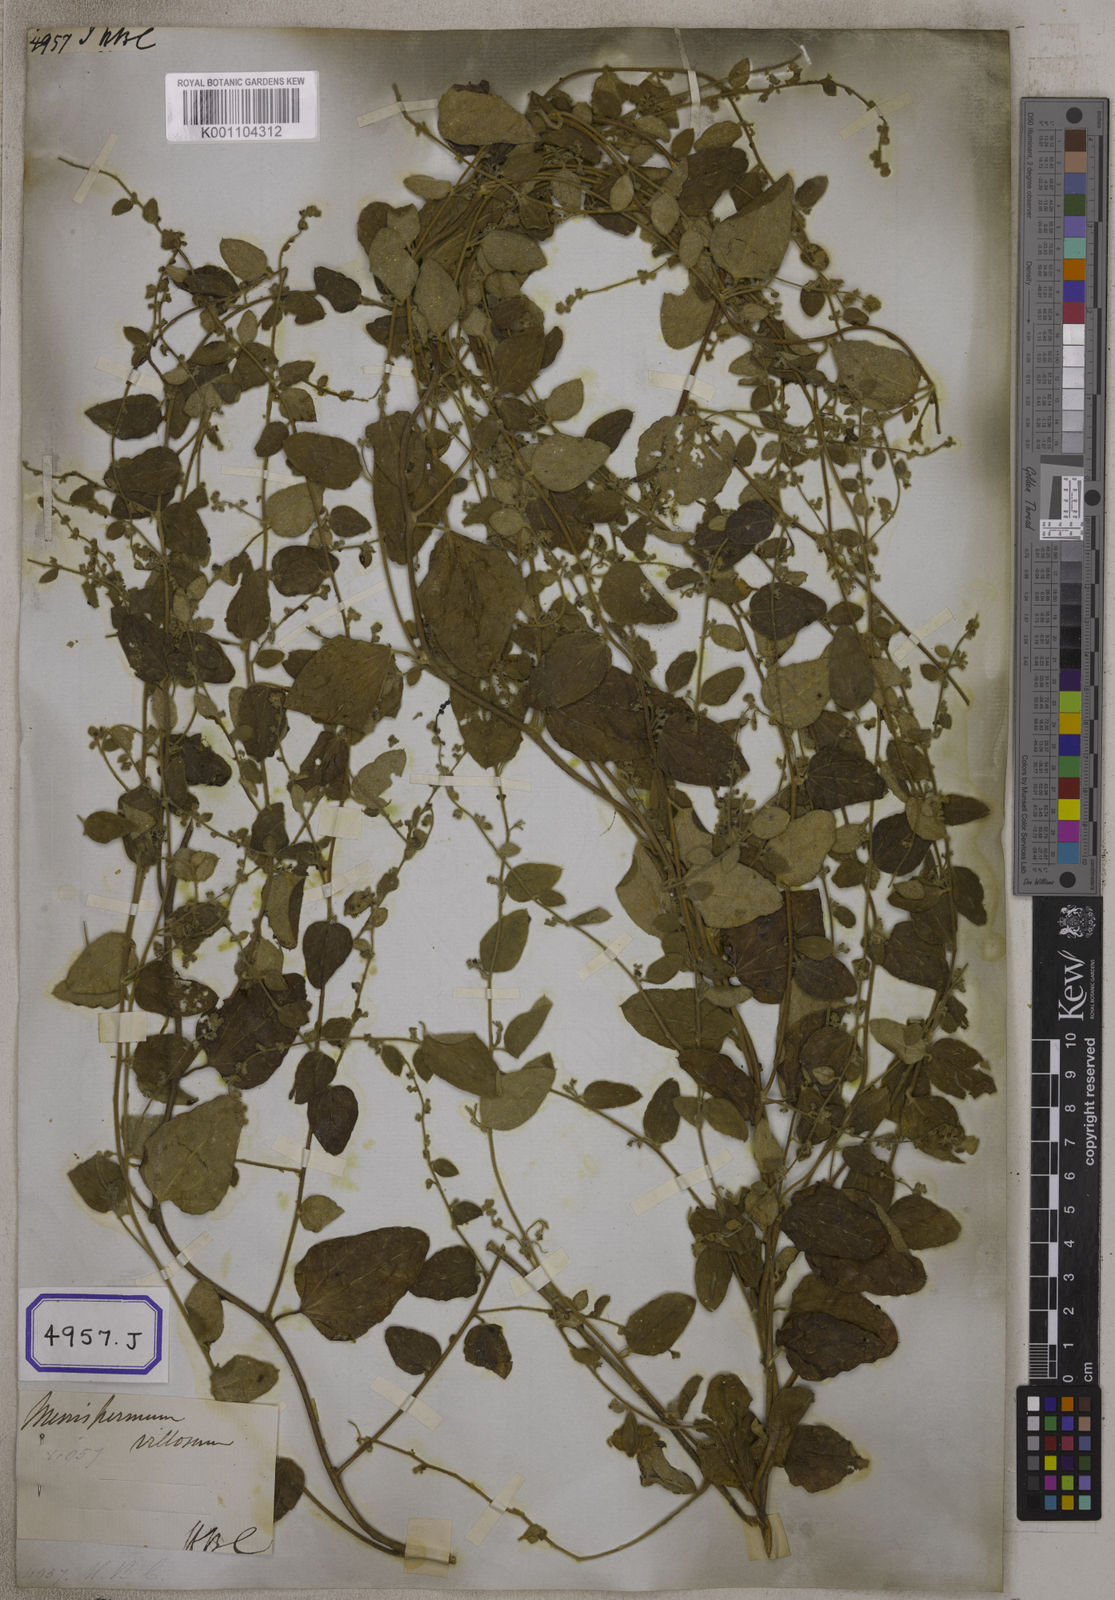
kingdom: Plantae
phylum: Tracheophyta
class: Magnoliopsida
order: Ranunculales
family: Menispermaceae
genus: Cocculus
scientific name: Cocculus hirsutus
